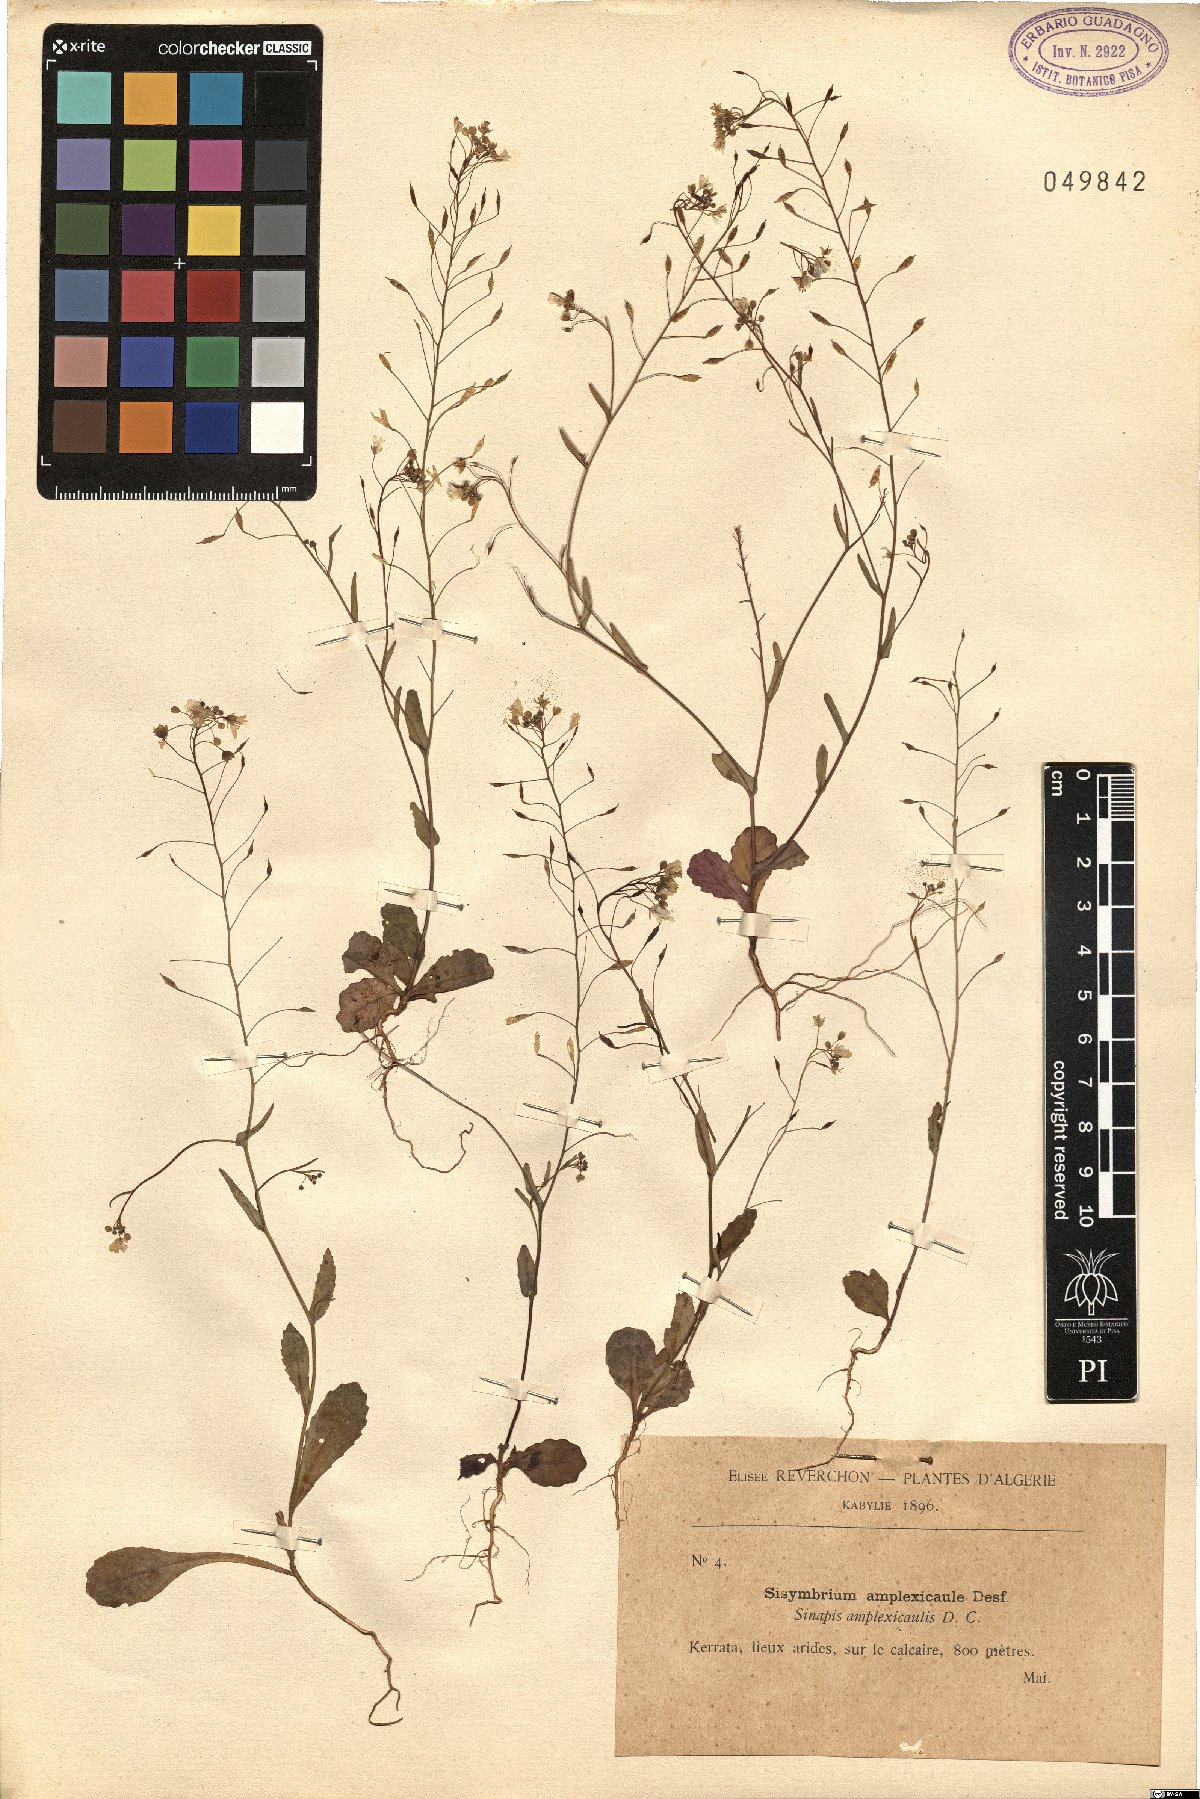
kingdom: Plantae
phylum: Tracheophyta
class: Magnoliopsida
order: Brassicales
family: Brassicaceae
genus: Brassica
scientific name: Brassica souliei
